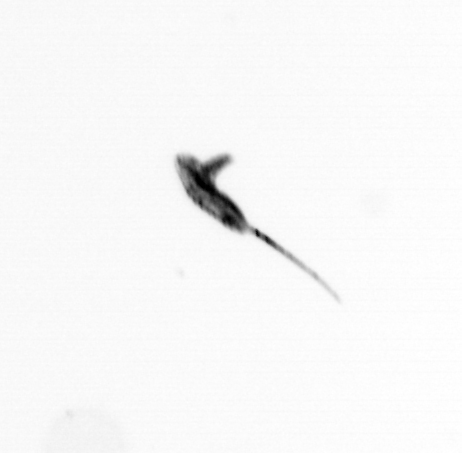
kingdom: Animalia
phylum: Arthropoda
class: Copepoda
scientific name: Copepoda
